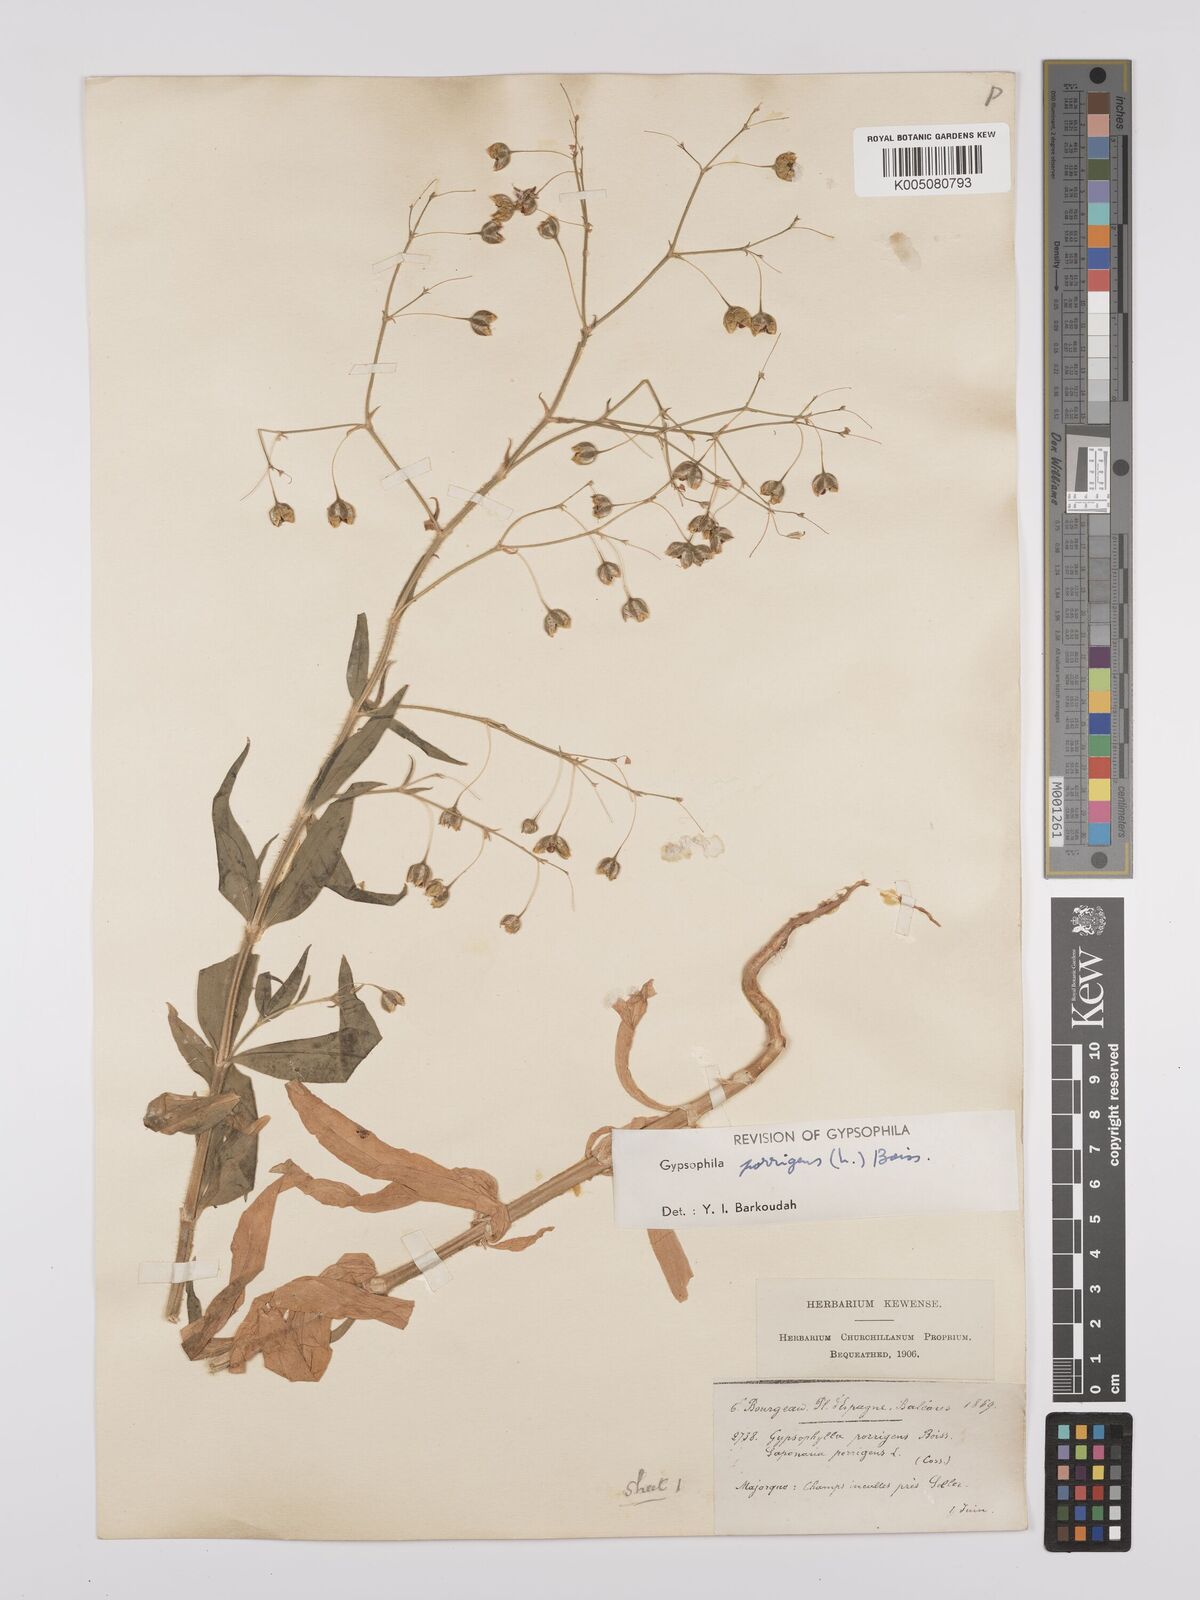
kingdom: Plantae
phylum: Tracheophyta
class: Magnoliopsida
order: Caryophyllales
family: Caryophyllaceae
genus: Gypsophila
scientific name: Gypsophila pilosa
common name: Turkish baby's-breath
